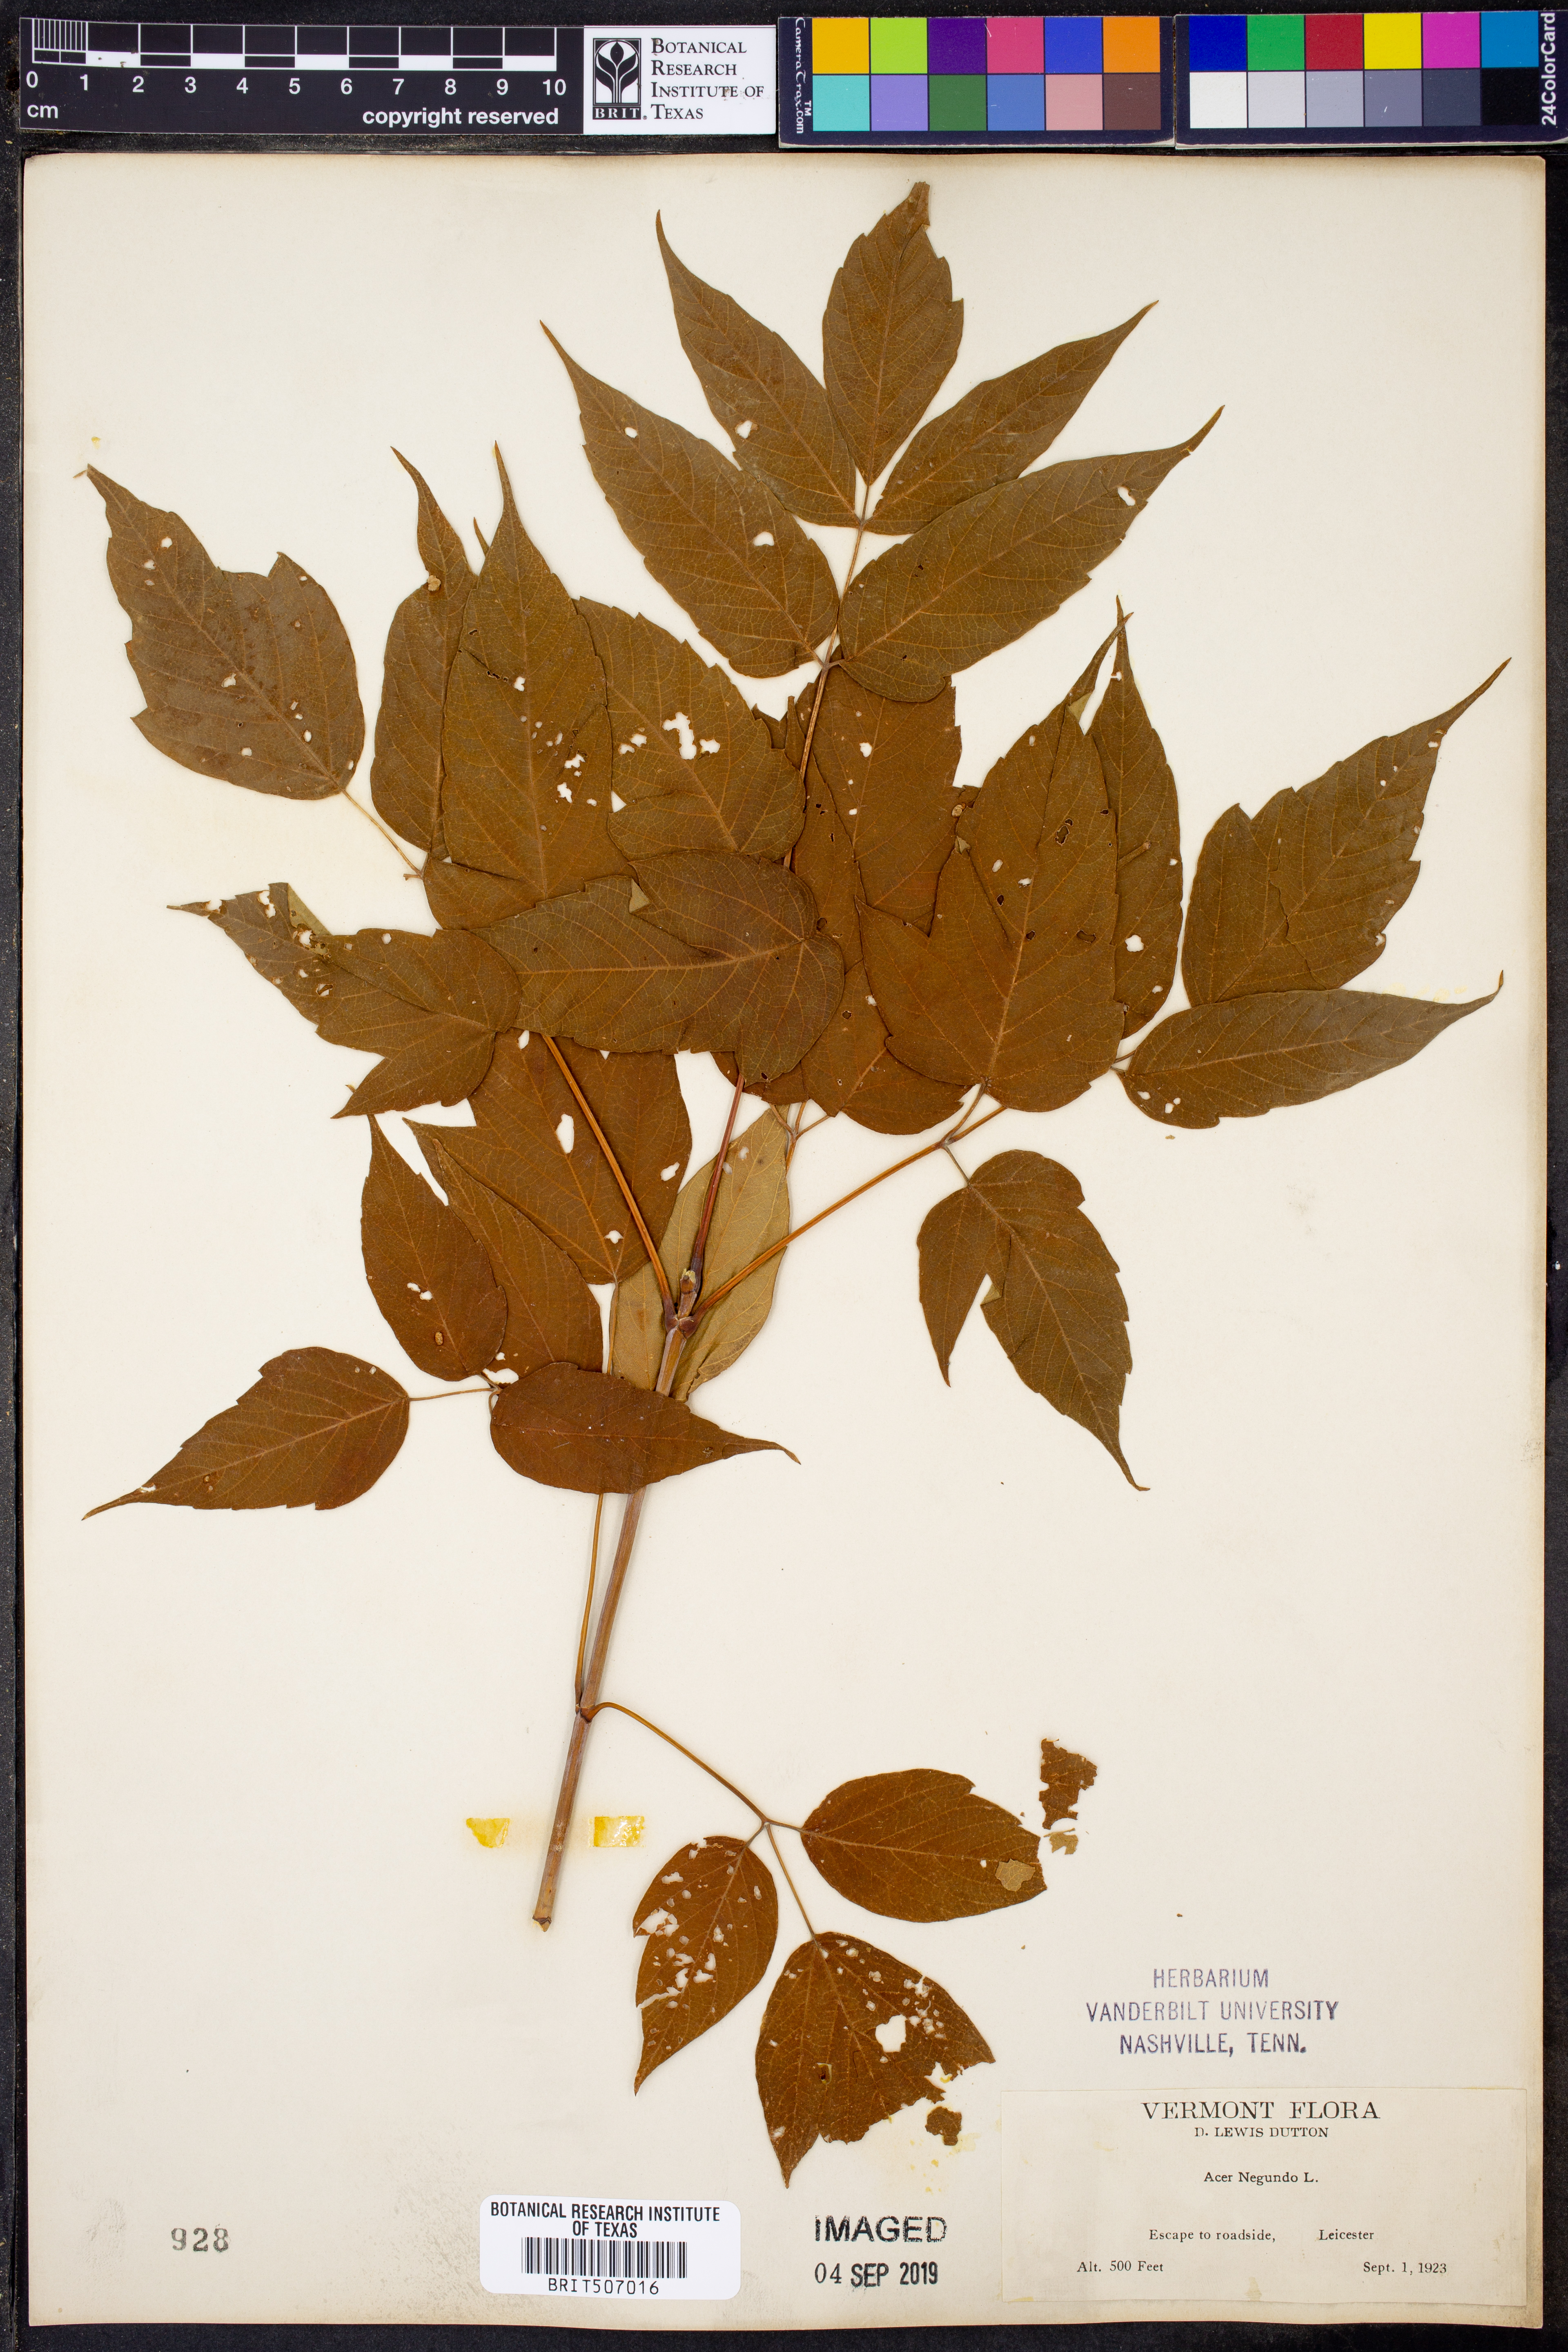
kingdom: Plantae
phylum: Tracheophyta
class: Magnoliopsida
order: Sapindales
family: Sapindaceae
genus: Acer
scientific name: Acer negundo
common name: Ashleaf maple
